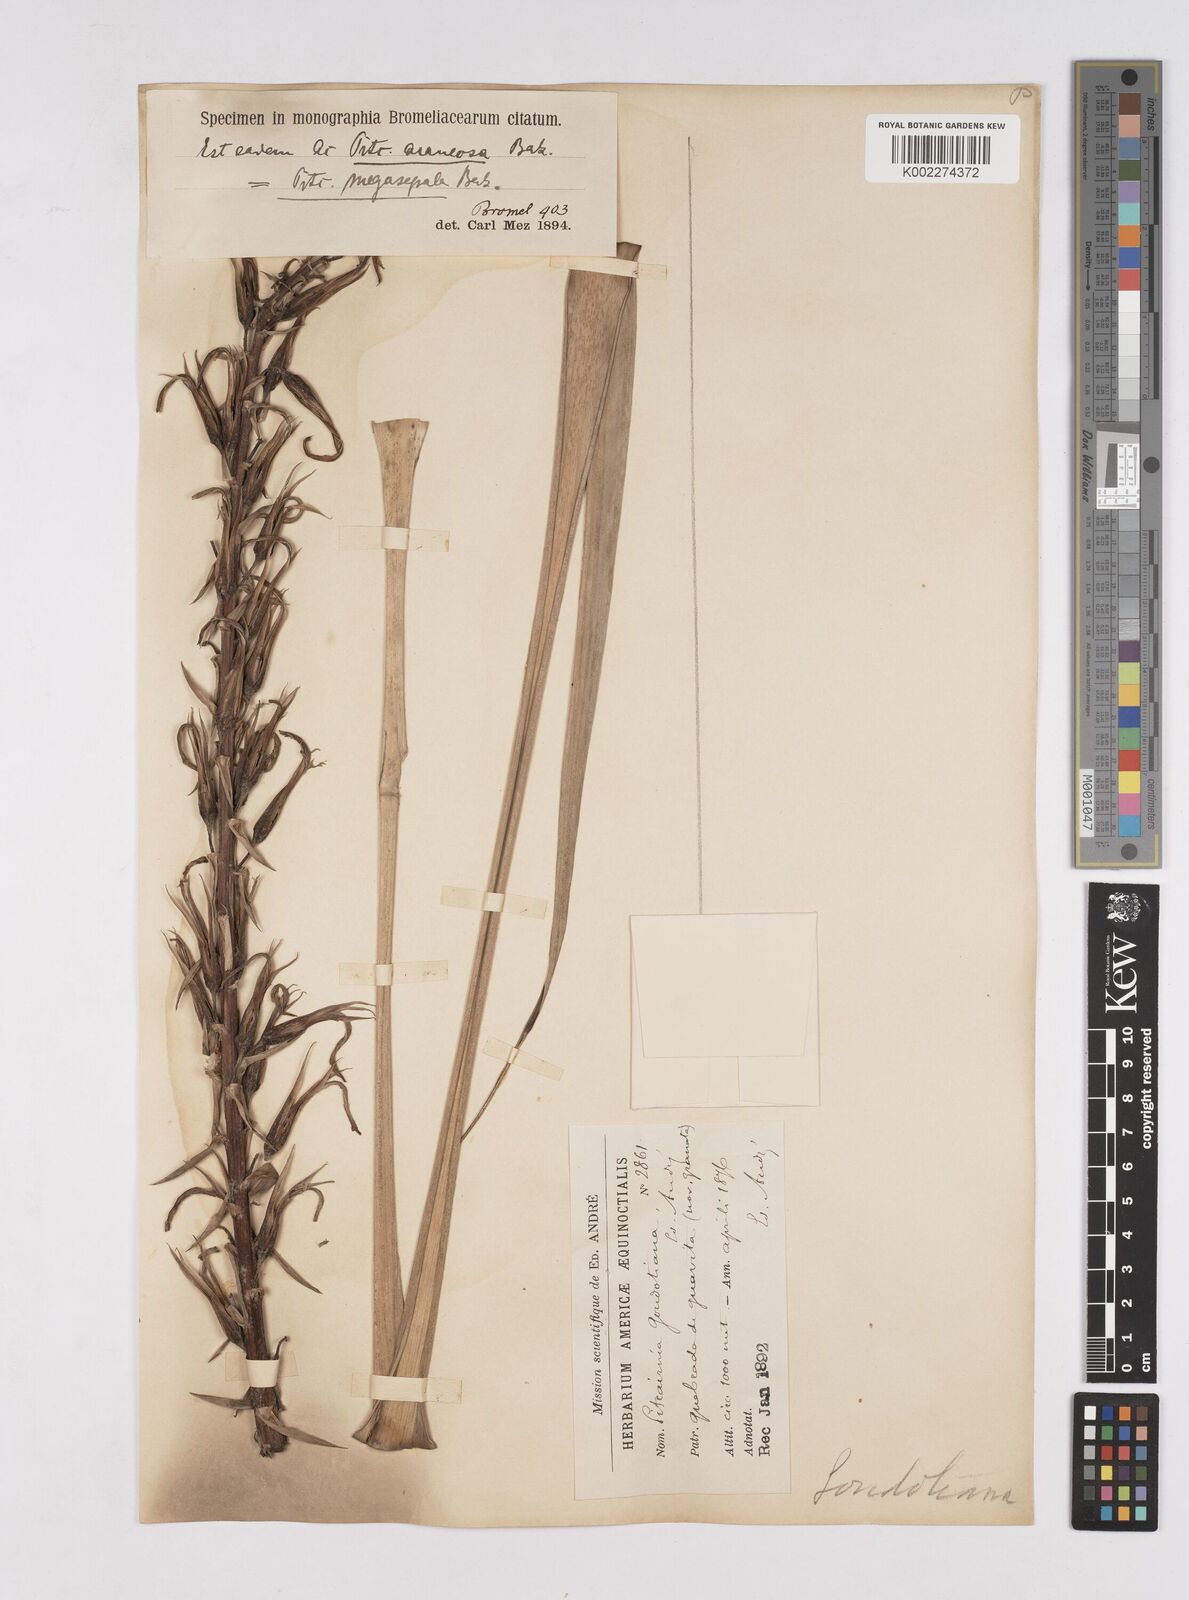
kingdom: Plantae
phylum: Tracheophyta
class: Liliopsida
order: Poales
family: Bromeliaceae
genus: Pitcairnia
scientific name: Pitcairnia megasepala
